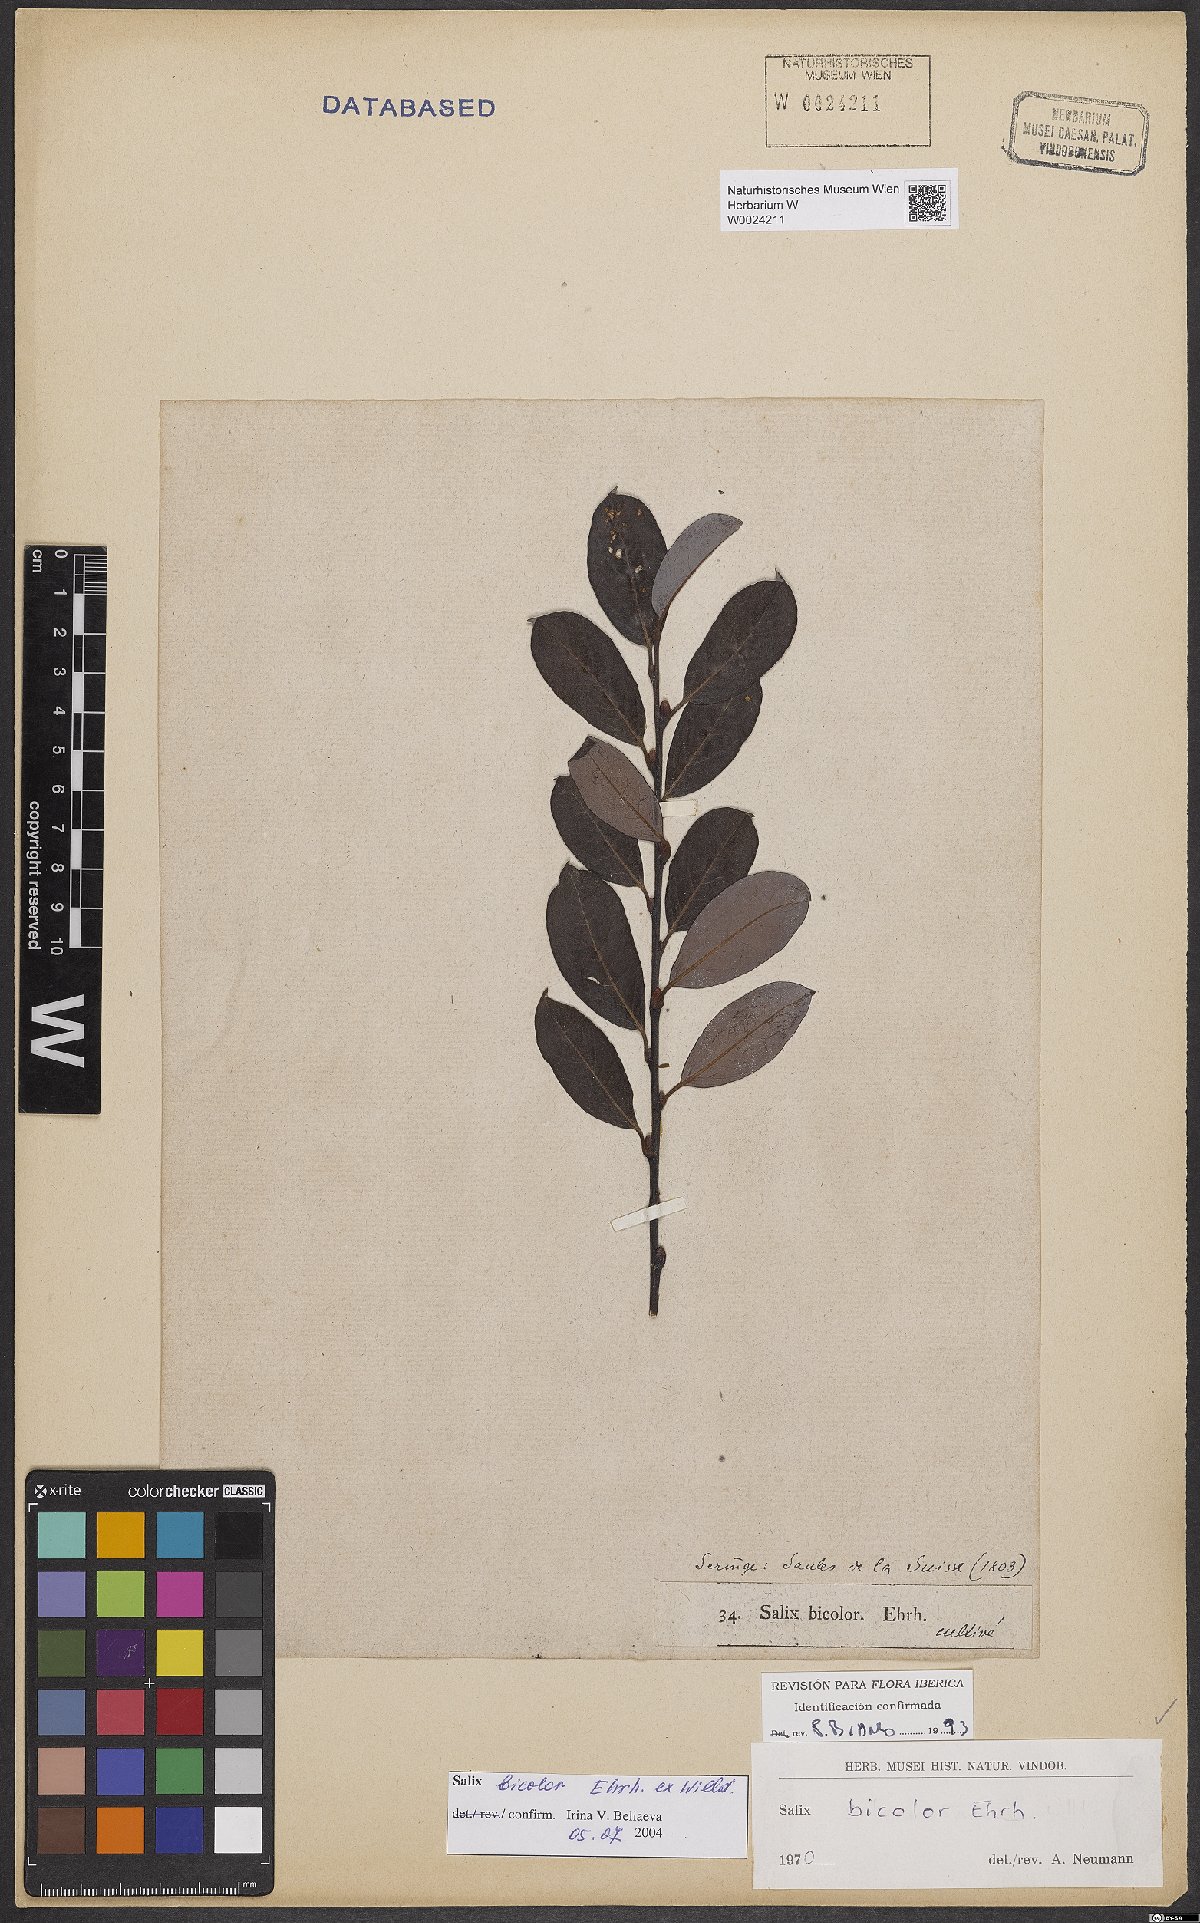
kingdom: Plantae
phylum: Tracheophyta
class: Magnoliopsida
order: Malpighiales
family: Salicaceae
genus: Salix
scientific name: Salix bicolor
